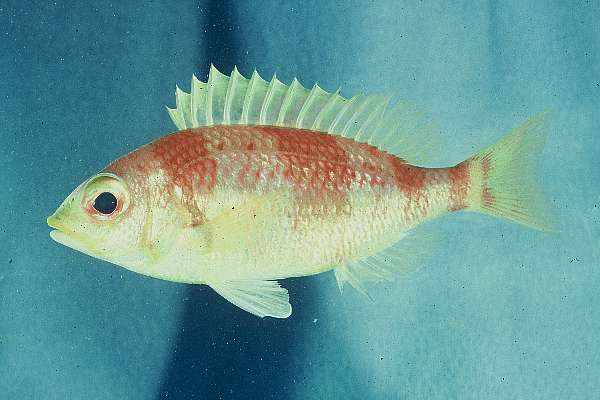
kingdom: Animalia
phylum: Chordata
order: Perciformes
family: Nemipteridae
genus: Parascolopsis
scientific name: Parascolopsis inermis
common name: Unarmed dwarf monocle bream
